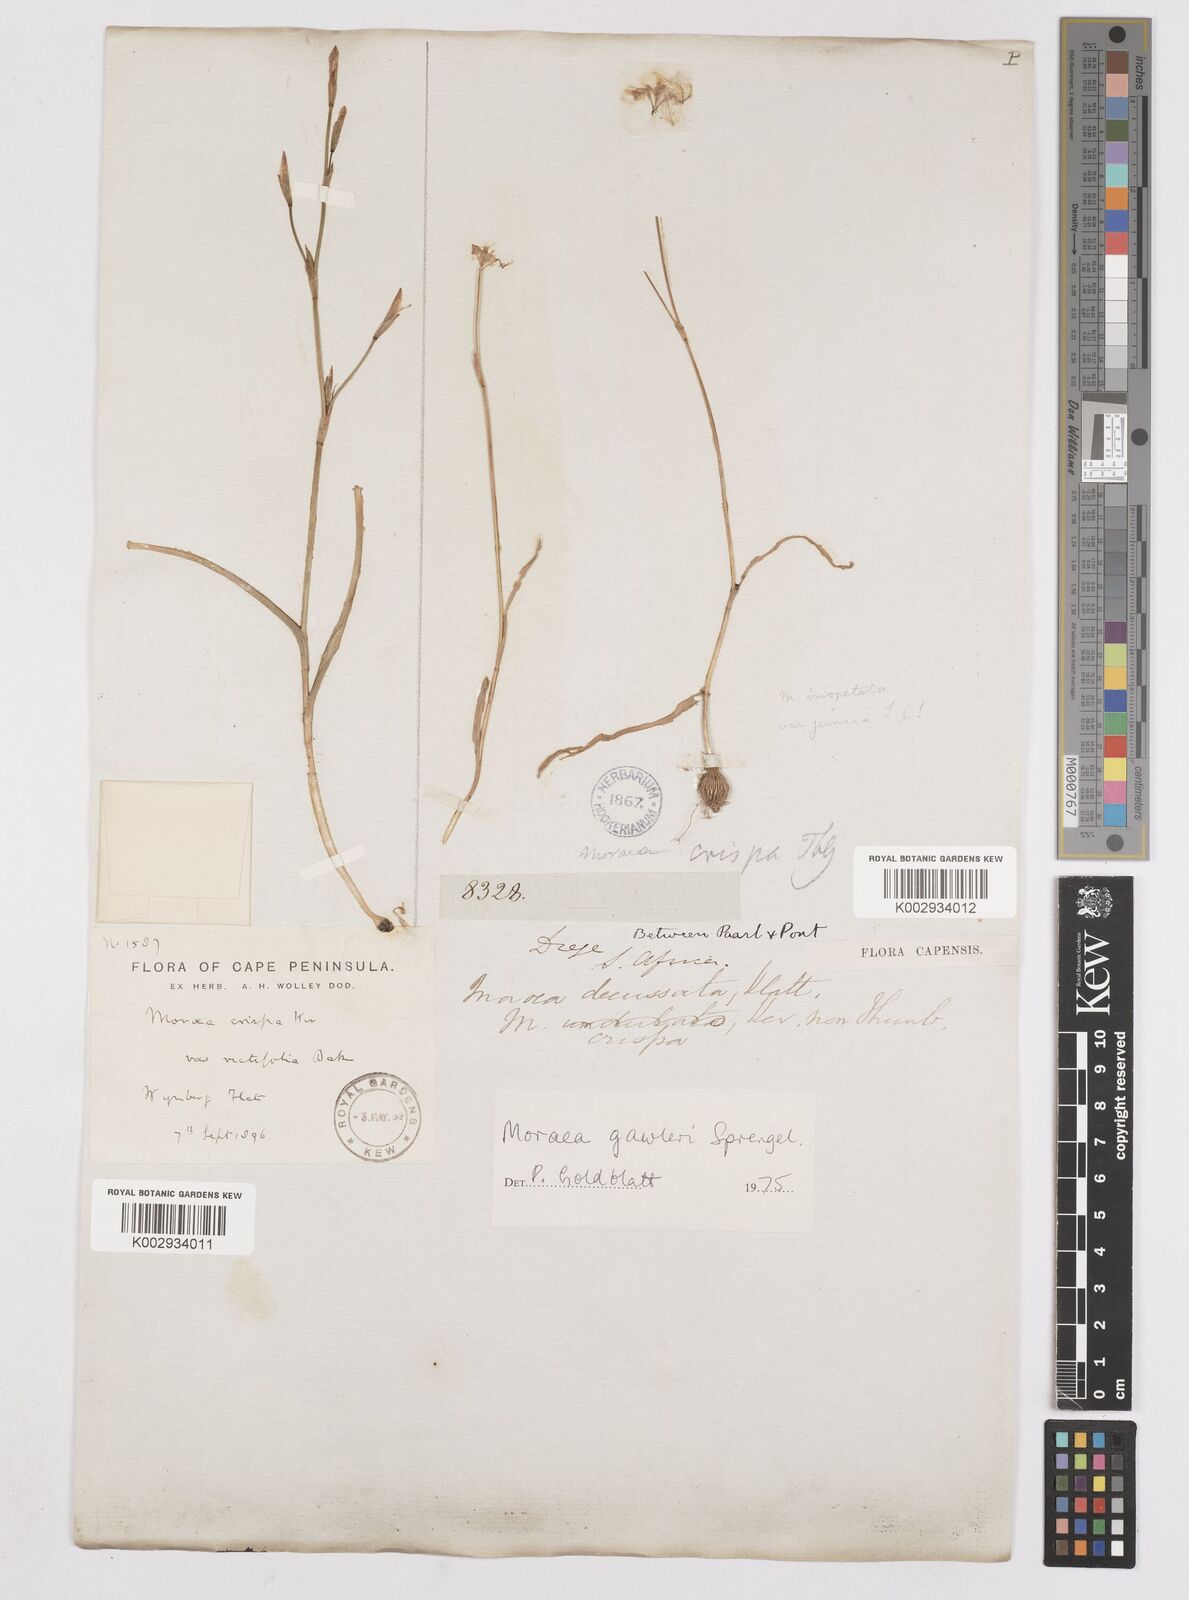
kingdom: Plantae
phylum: Tracheophyta
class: Liliopsida
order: Asparagales
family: Iridaceae
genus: Moraea
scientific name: Moraea gawleri
